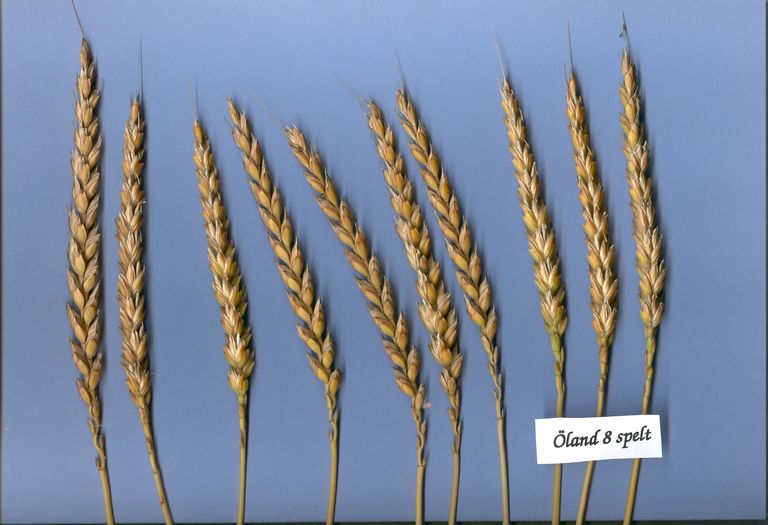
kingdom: Plantae
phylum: Tracheophyta
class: Liliopsida
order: Poales
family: Poaceae
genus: Triticum
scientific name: Triticum aestivum
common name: Common wheat
